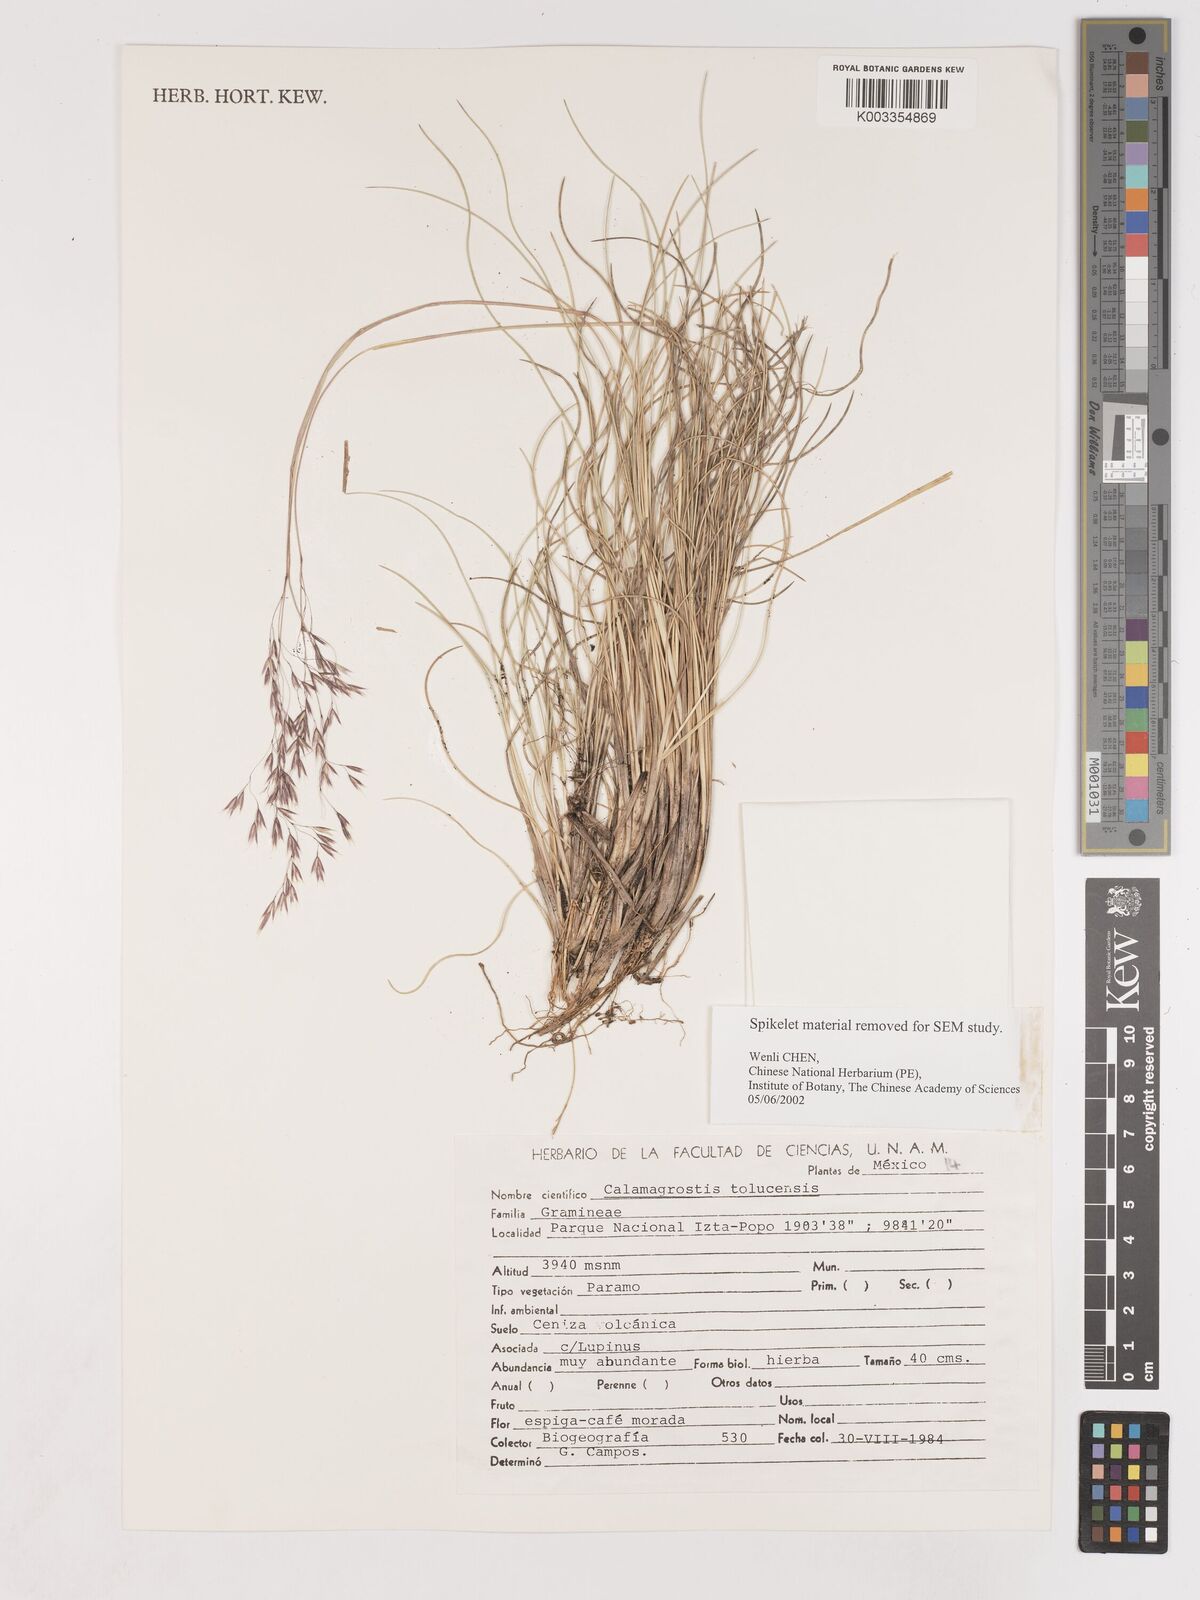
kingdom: Plantae
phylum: Tracheophyta
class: Liliopsida
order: Poales
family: Poaceae
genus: Peyritschia
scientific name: Peyritschia tolucensis
